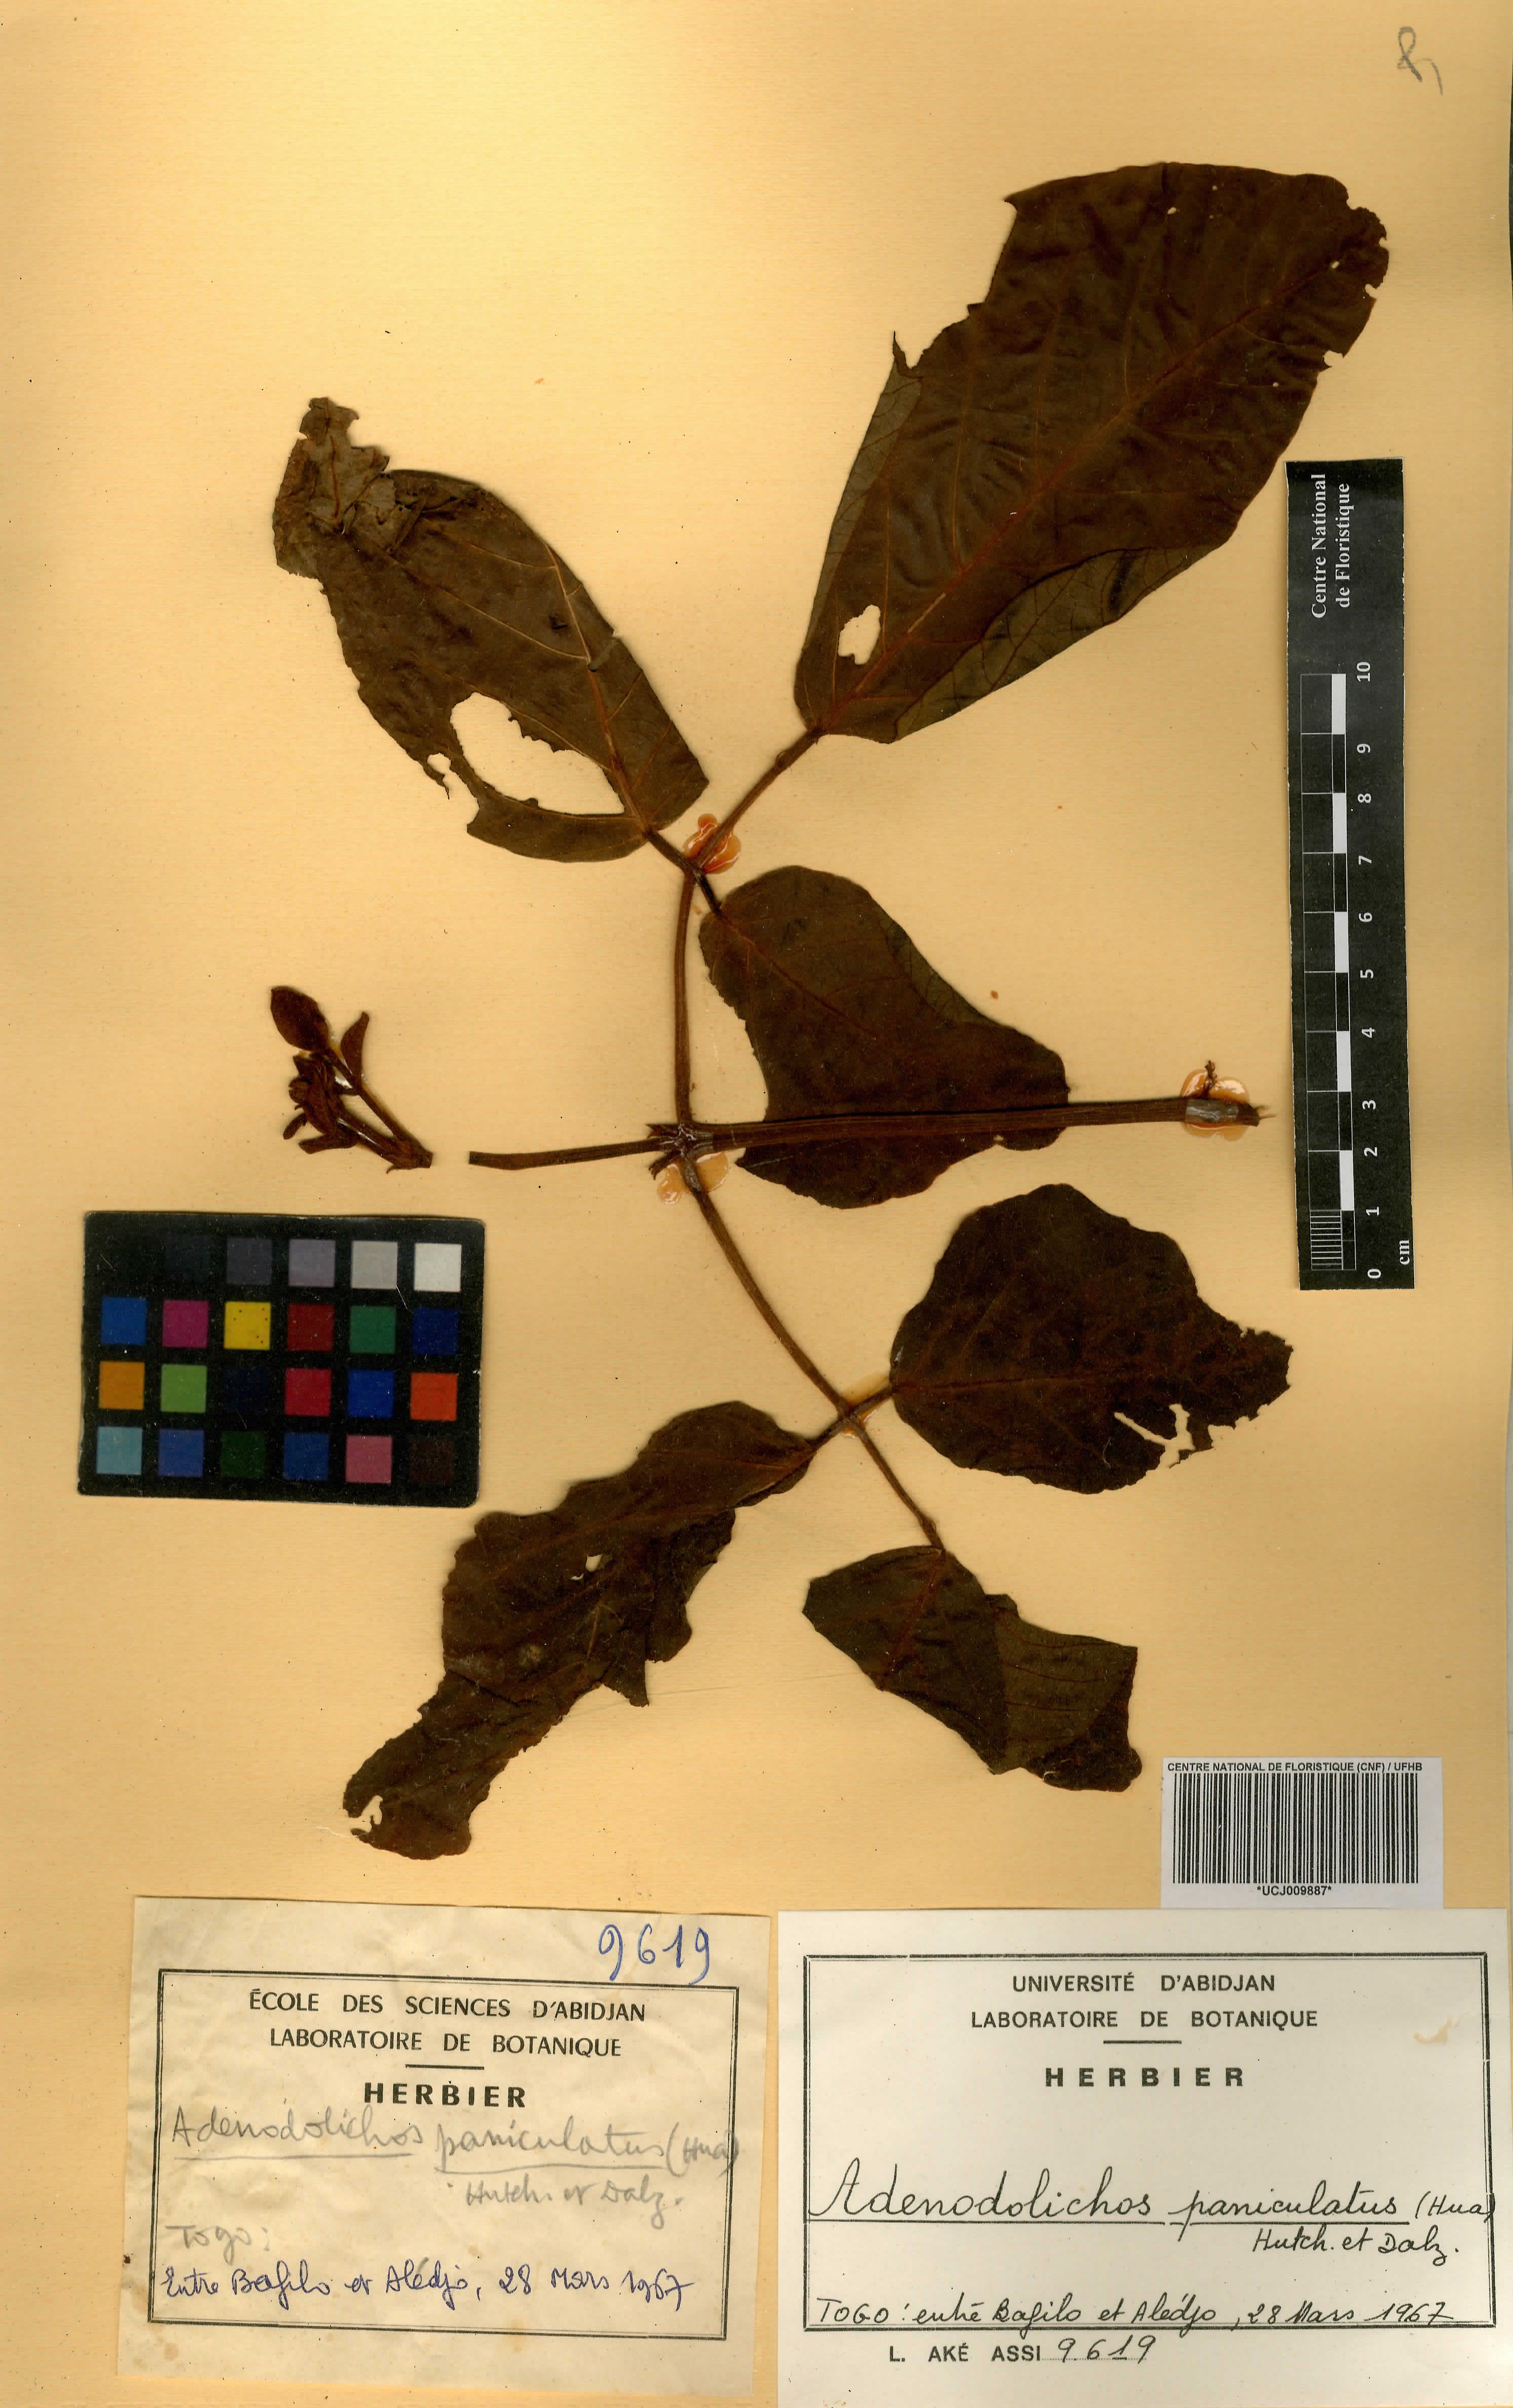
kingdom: Plantae
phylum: Tracheophyta
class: Magnoliopsida
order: Fabales
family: Fabaceae
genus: Adenodolichos
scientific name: Adenodolichos paniculatus
